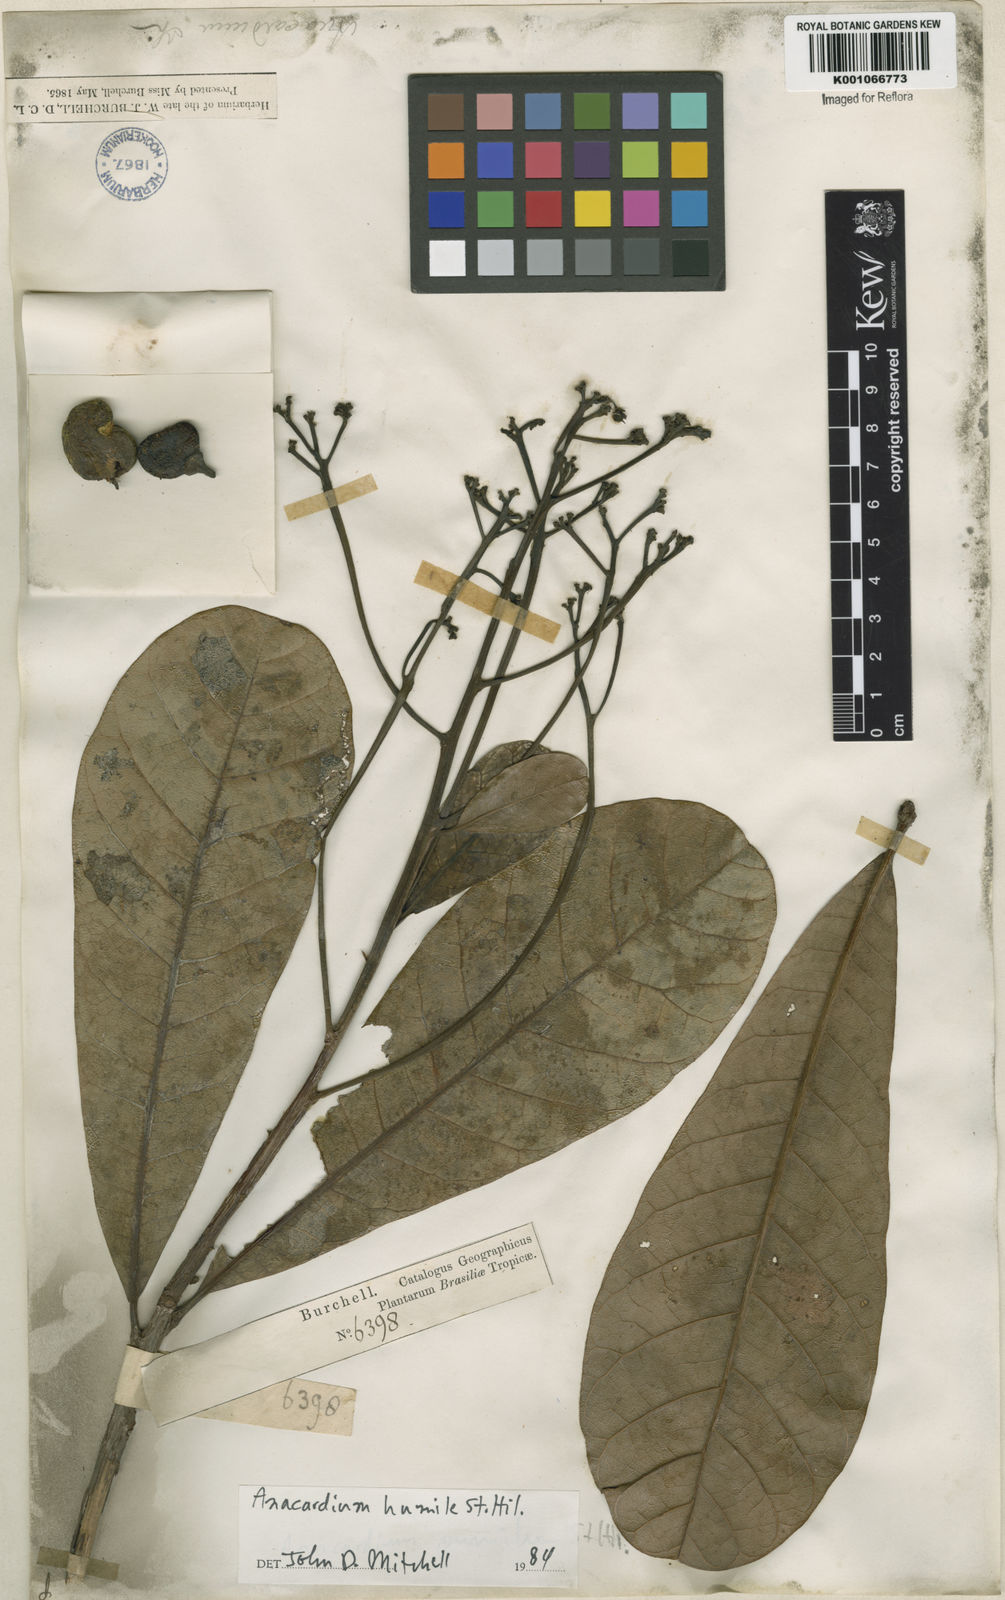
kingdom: Plantae
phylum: Tracheophyta
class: Magnoliopsida
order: Sapindales
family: Anacardiaceae
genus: Anacardium
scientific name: Anacardium humile
